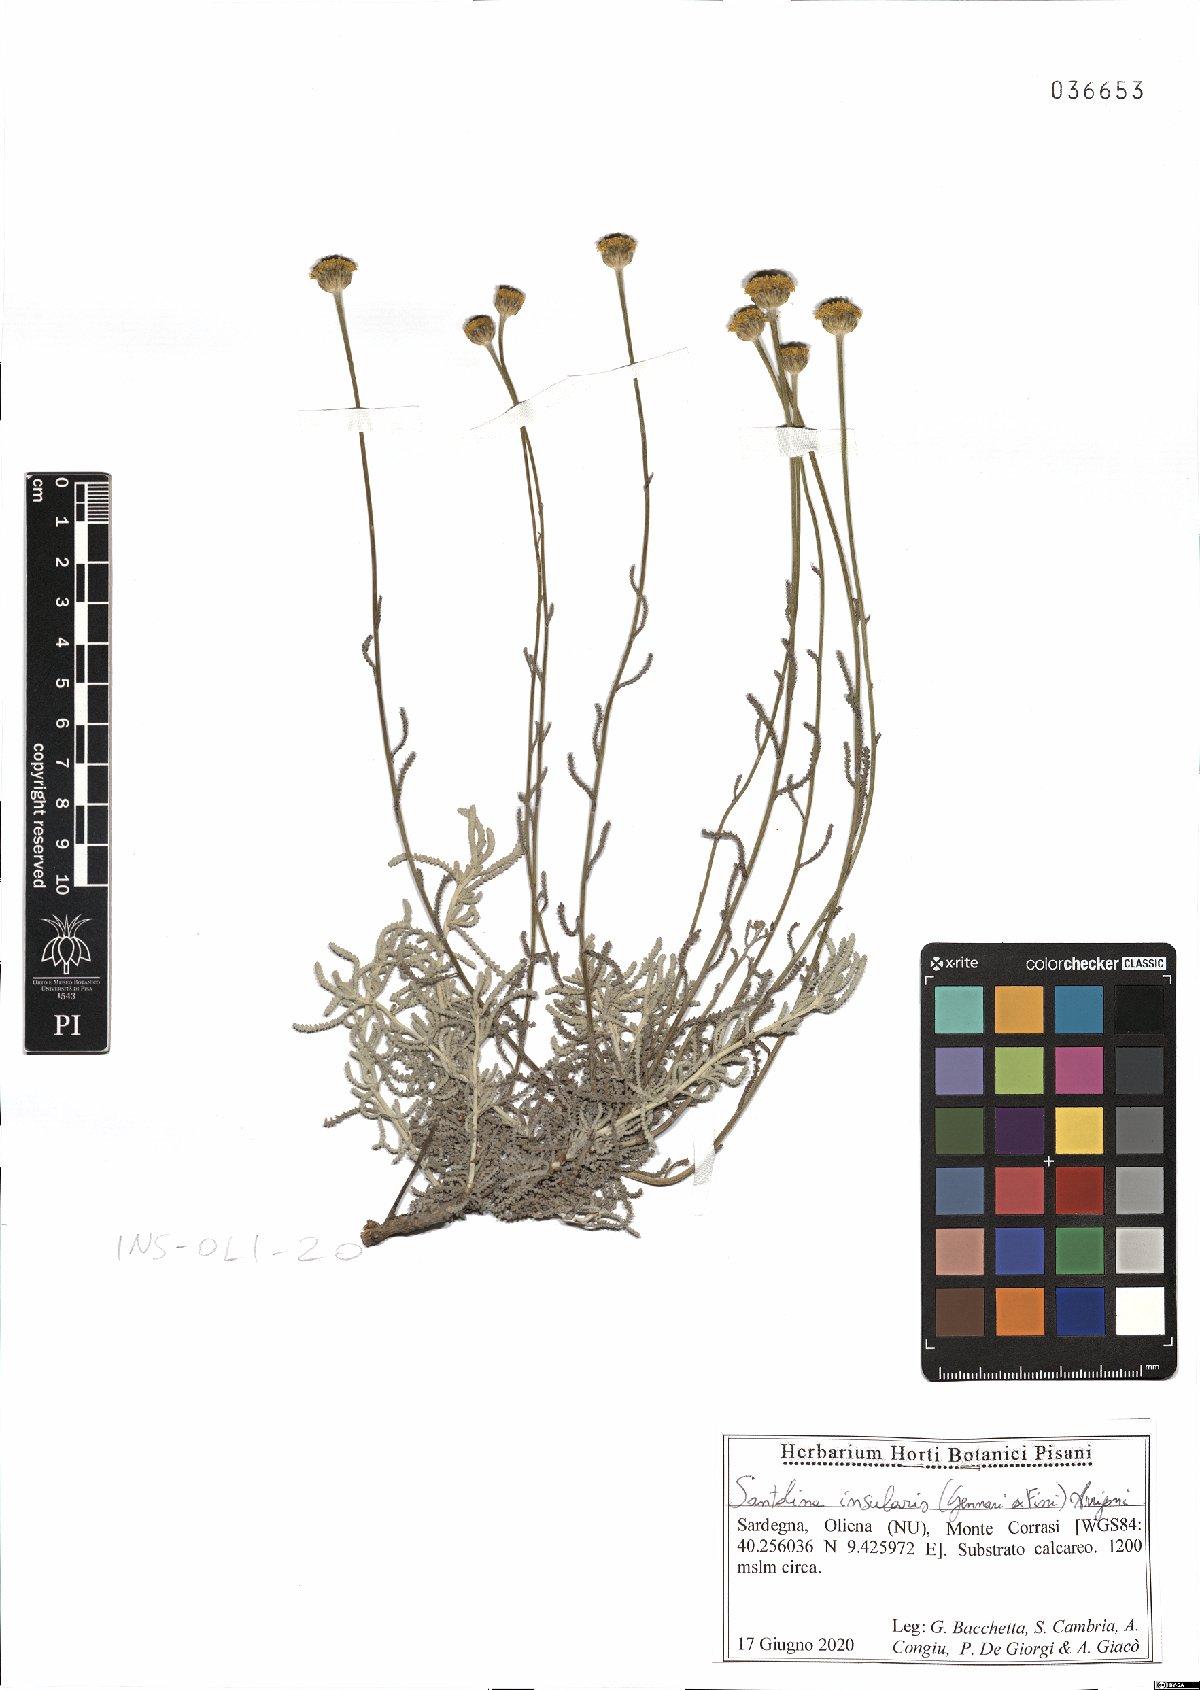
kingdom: Plantae
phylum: Tracheophyta
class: Magnoliopsida
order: Asterales
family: Asteraceae
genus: Santolina
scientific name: Santolina insularis
